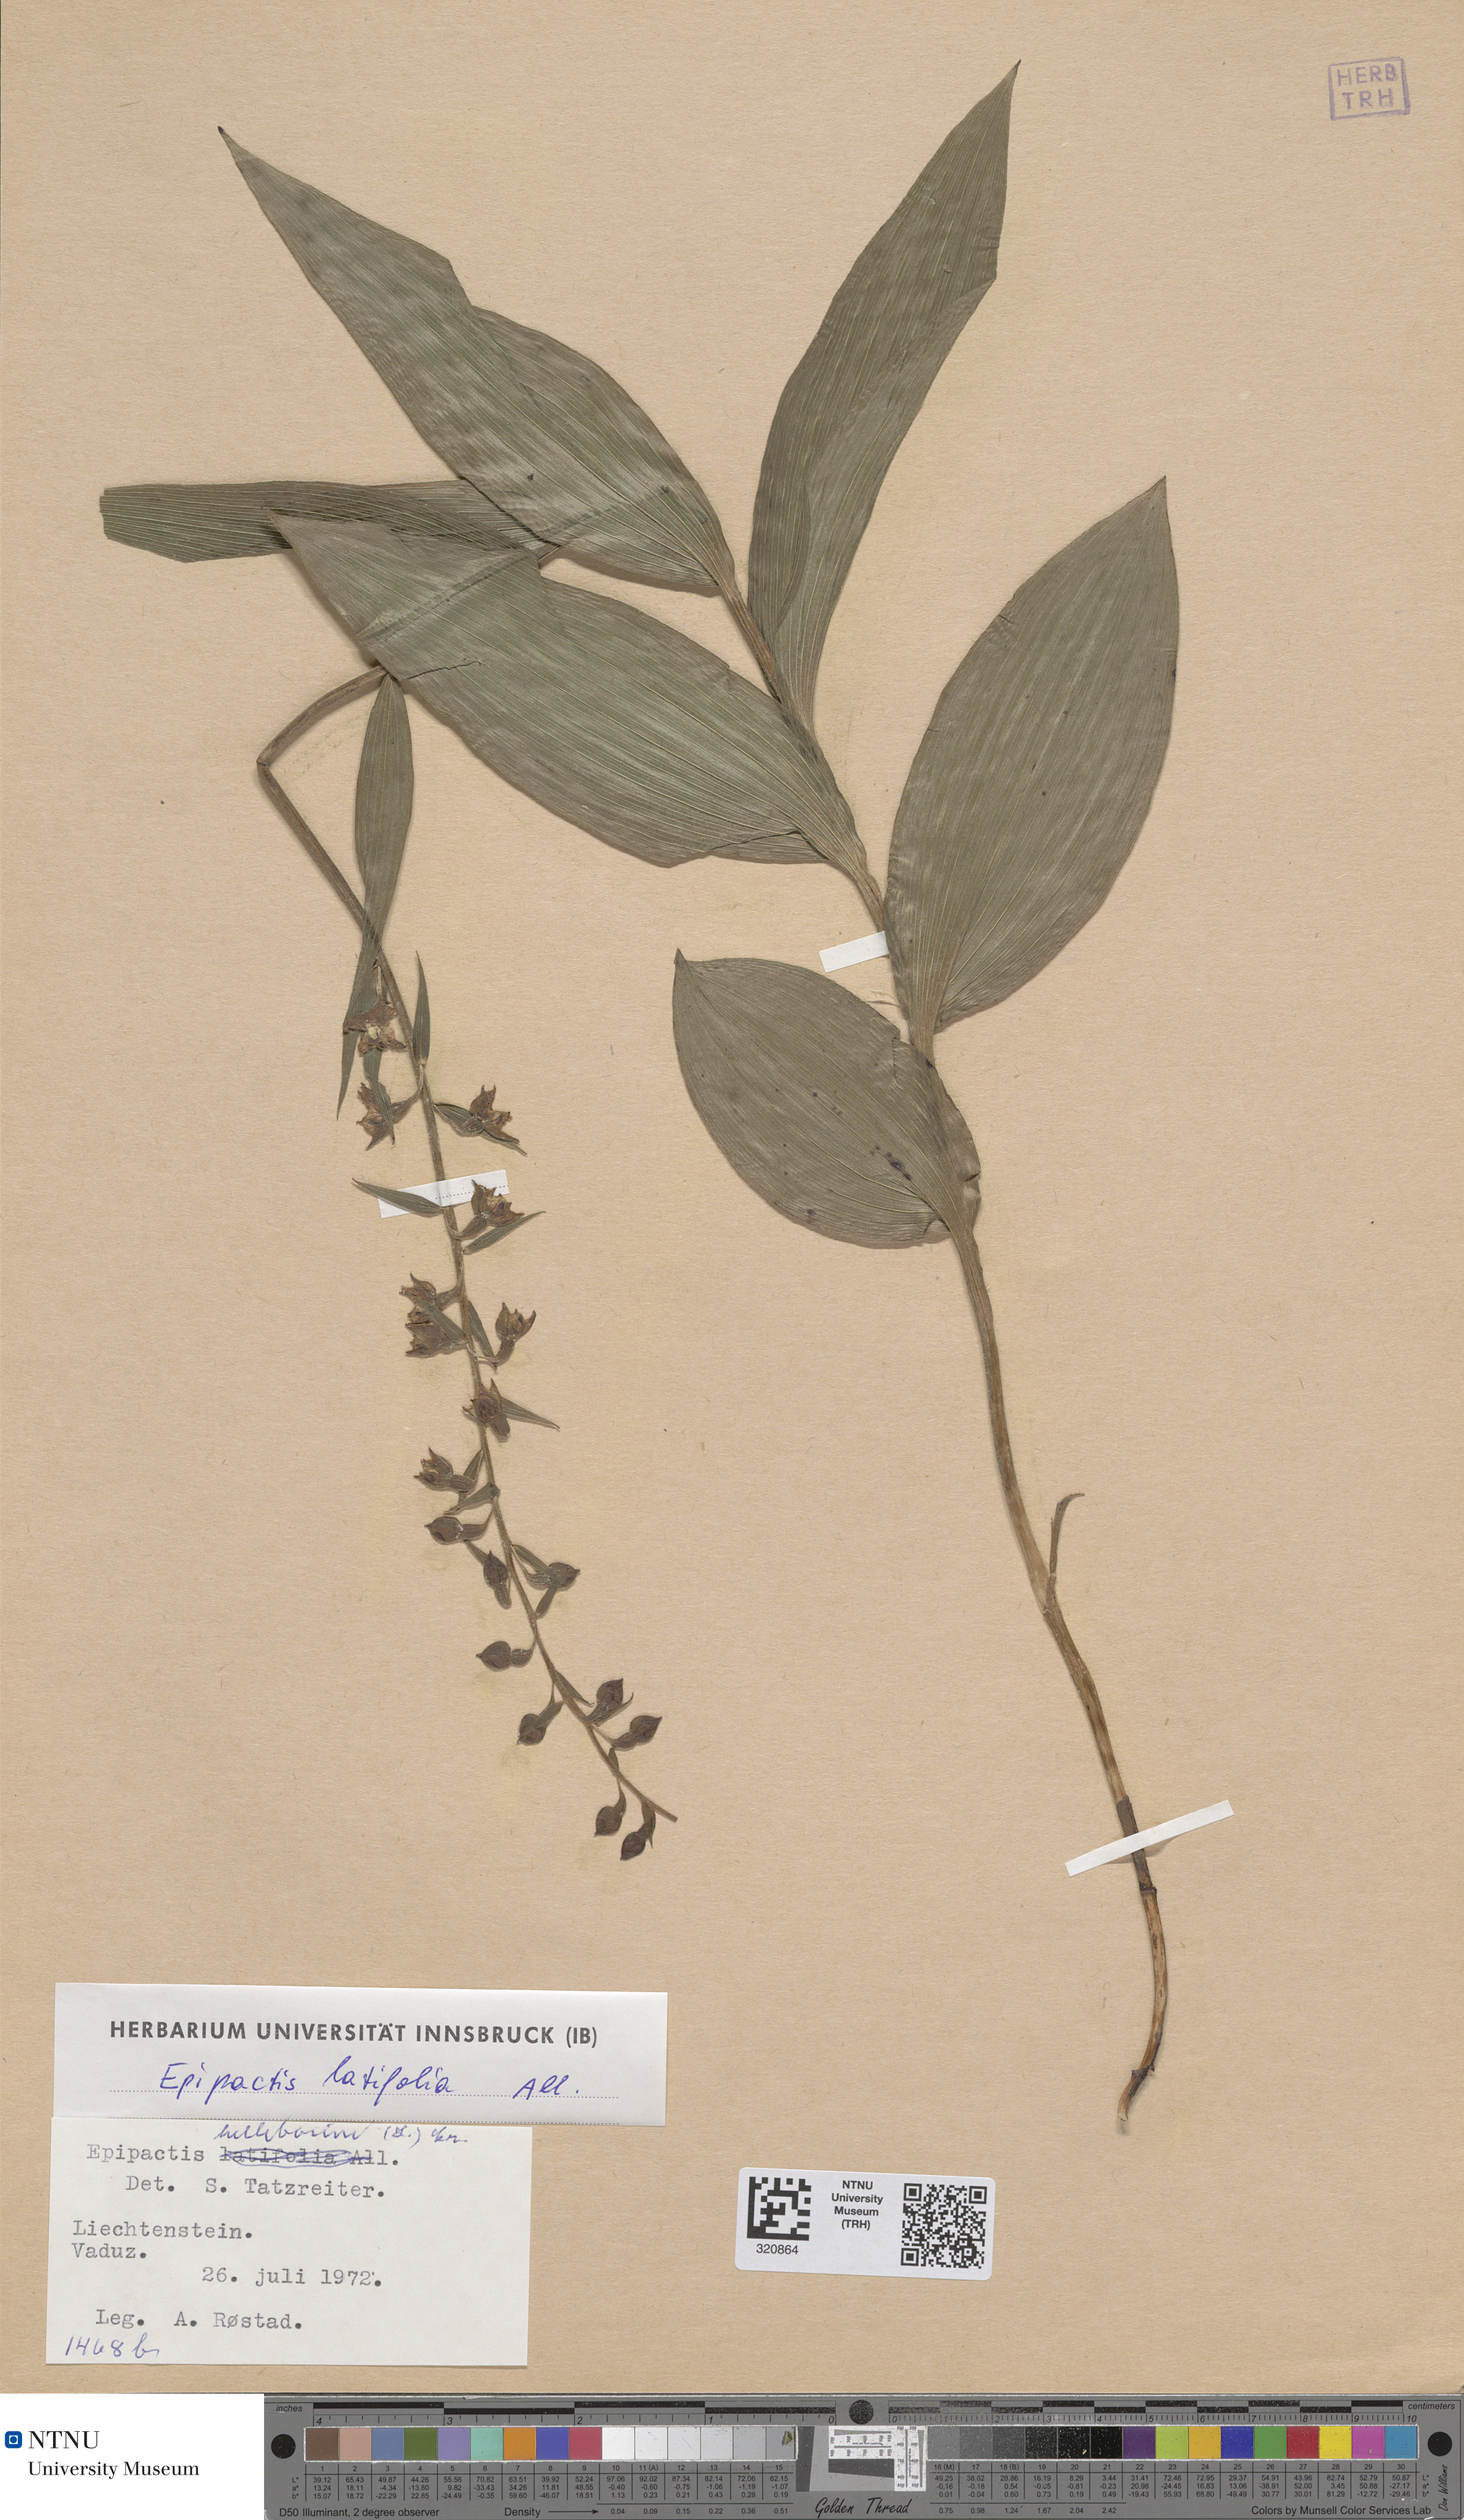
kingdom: Plantae
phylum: Tracheophyta
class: Liliopsida
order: Asparagales
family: Orchidaceae
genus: Epipactis
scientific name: Epipactis helleborine
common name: Broad-leaved helleborine
